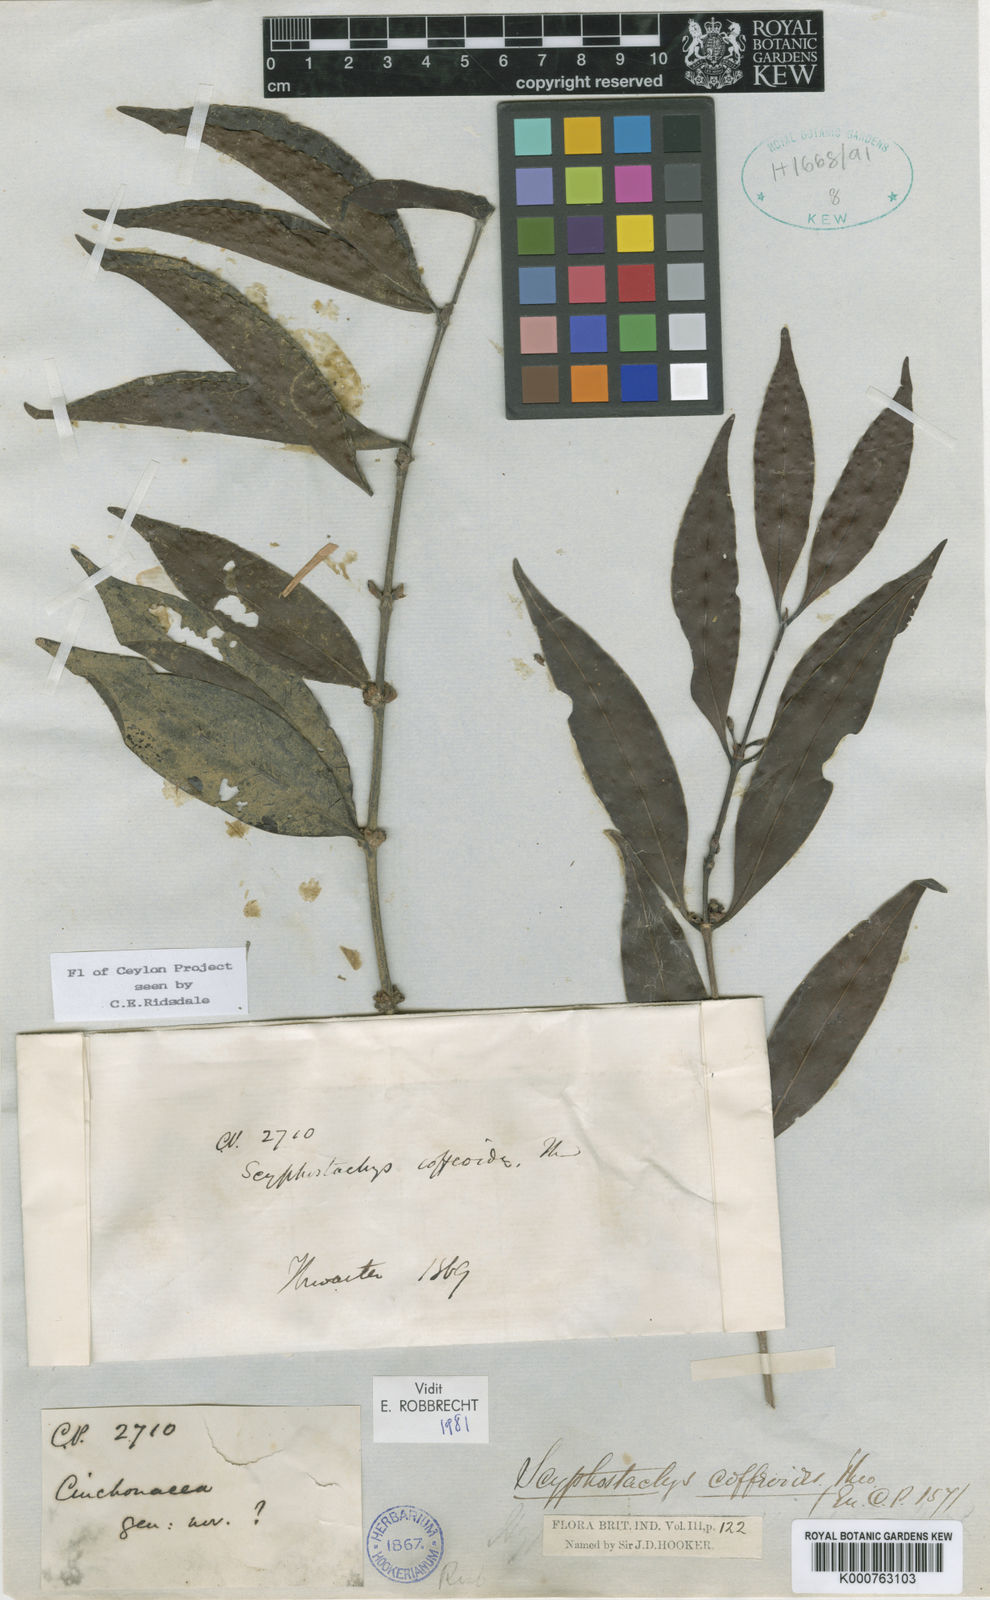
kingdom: Plantae
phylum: Tracheophyta
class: Magnoliopsida
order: Gentianales
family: Rubiaceae
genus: Scyphostachys
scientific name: Scyphostachys coffeoides
